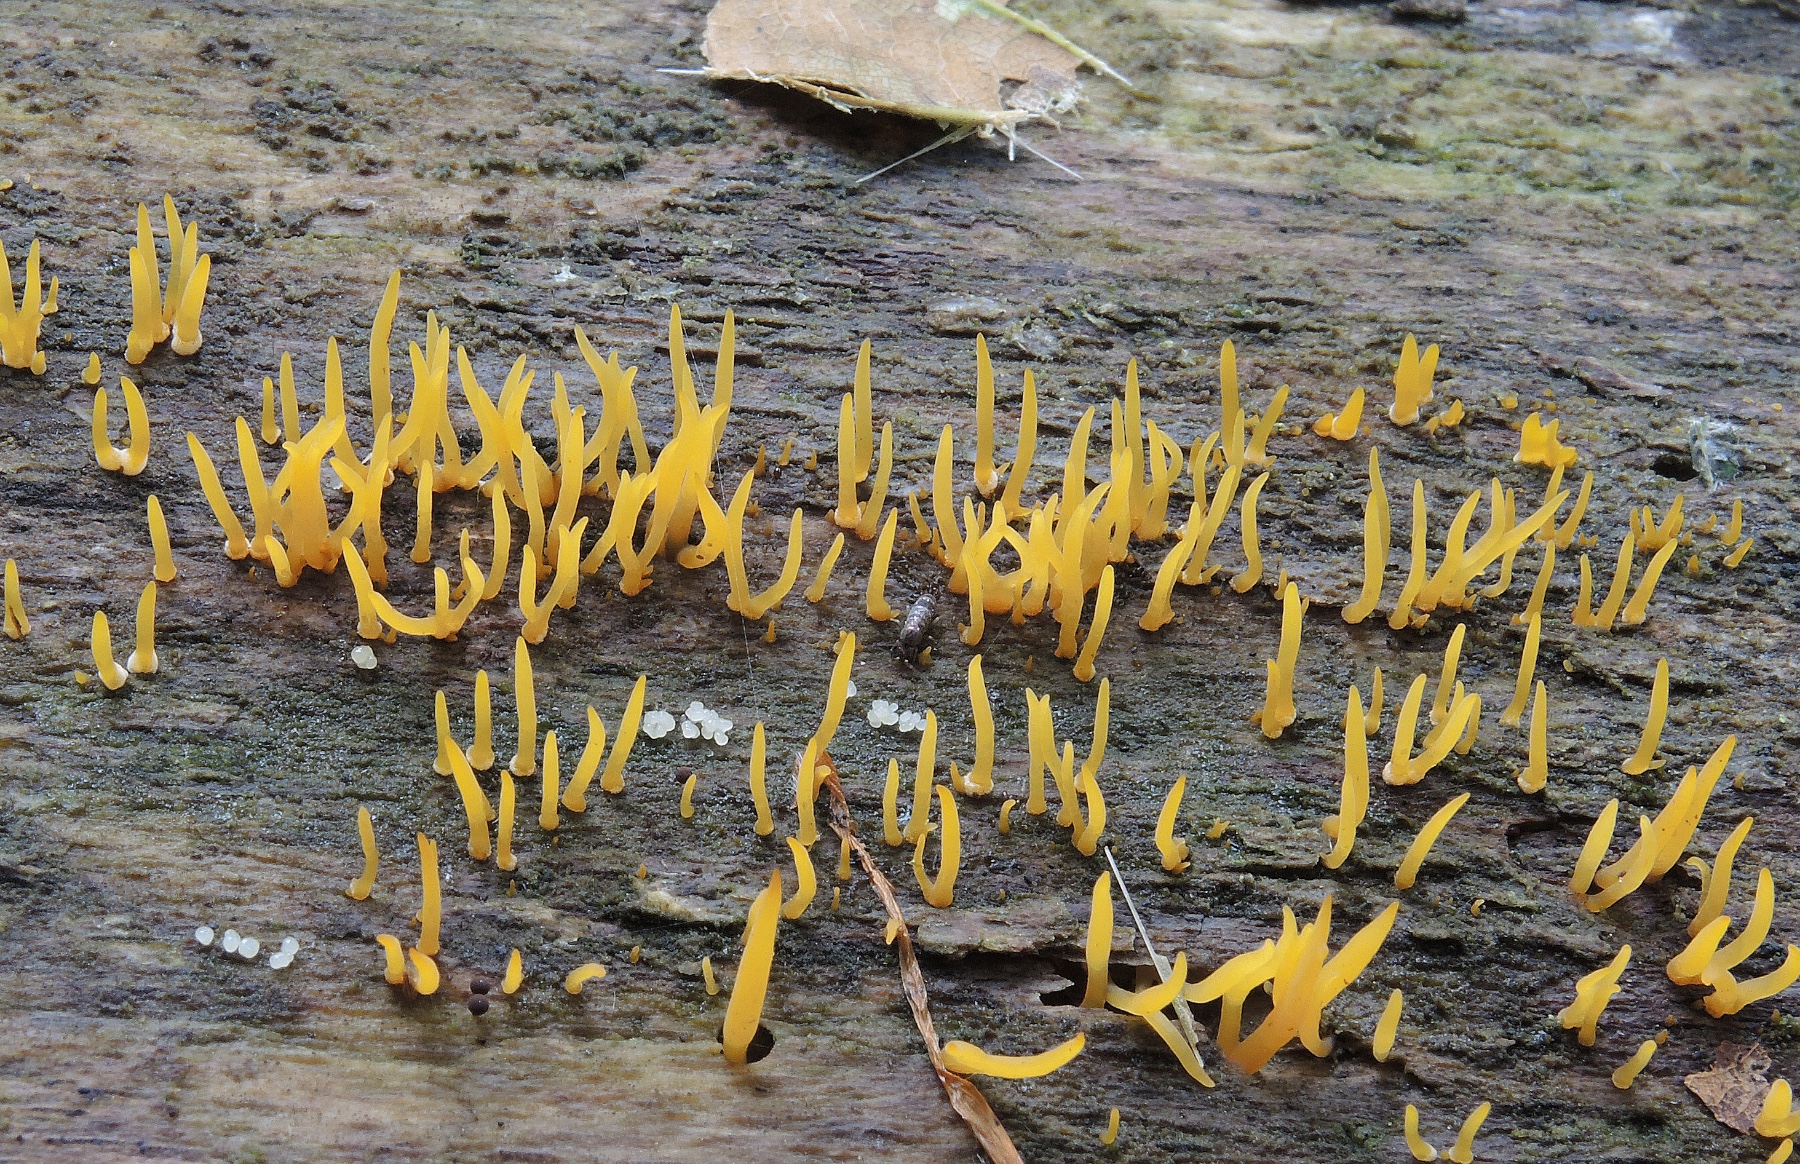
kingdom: Fungi
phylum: Basidiomycota
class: Dacrymycetes
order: Dacrymycetales
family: Dacrymycetaceae
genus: Calocera
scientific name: Calocera cornea
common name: liden guldgaffel
